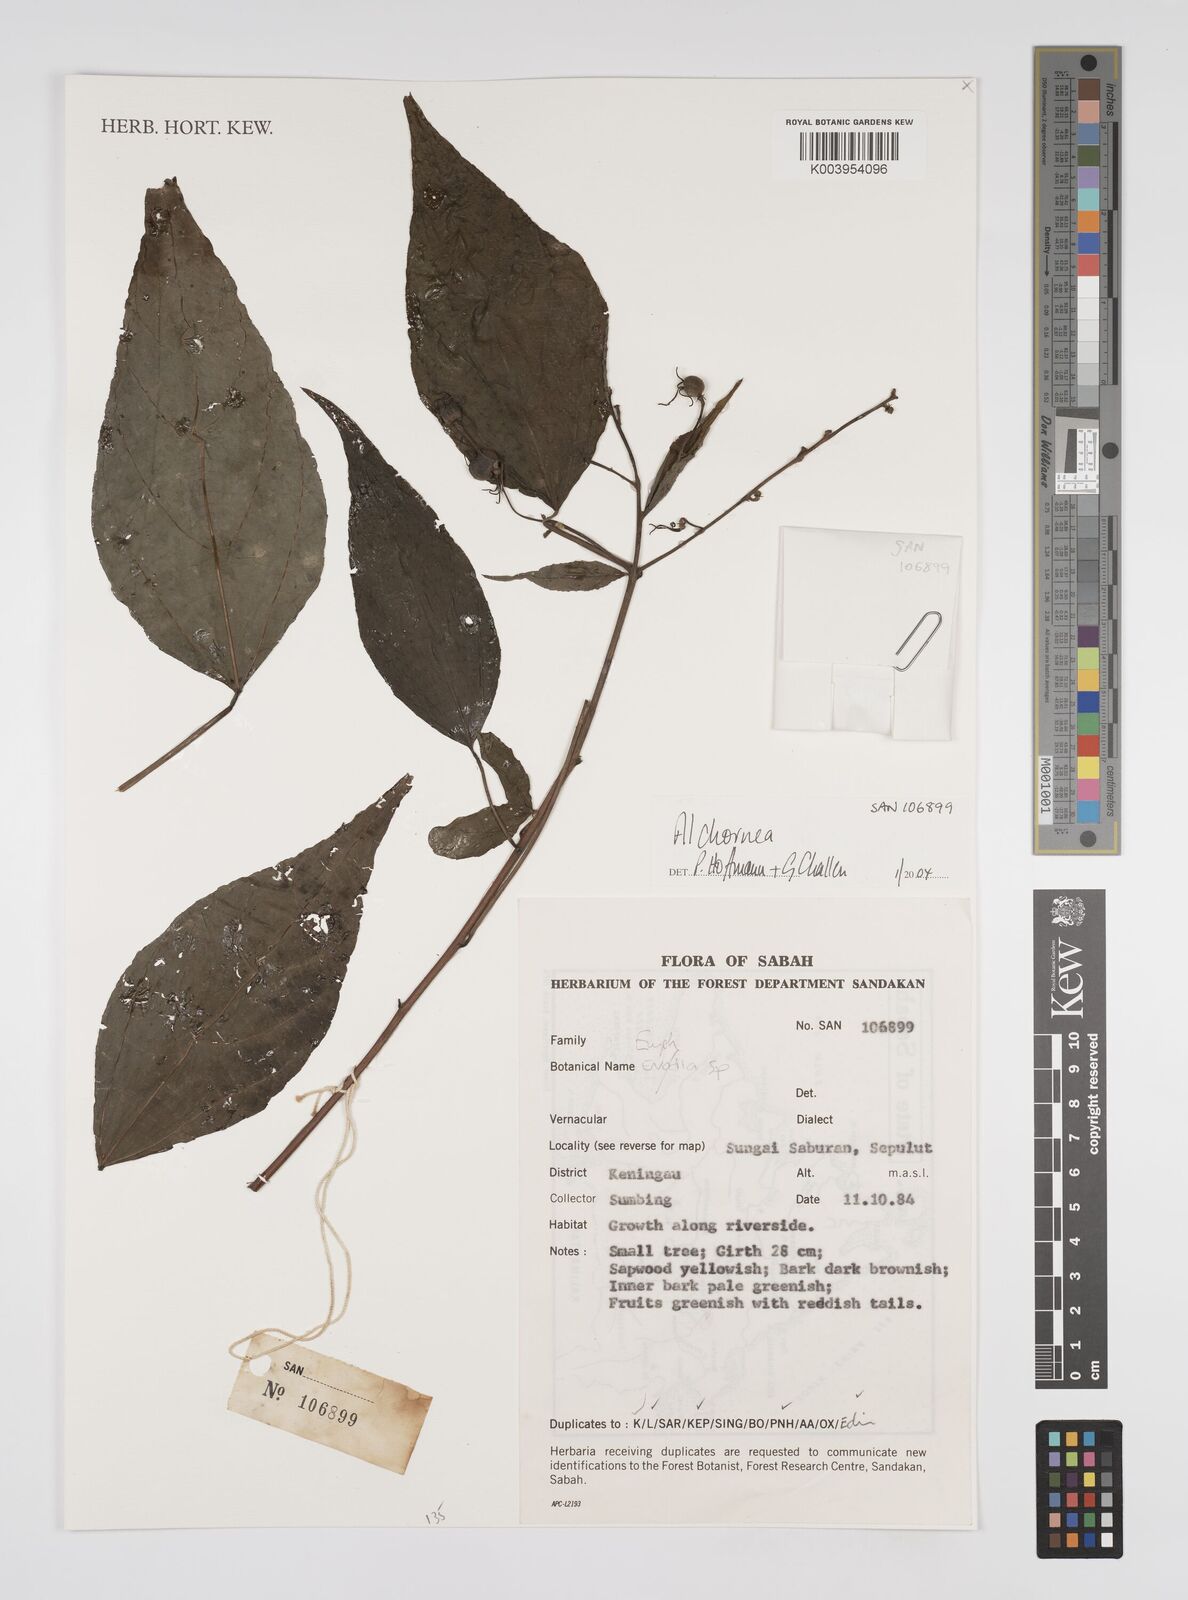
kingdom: Plantae
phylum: Tracheophyta
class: Magnoliopsida
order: Malpighiales
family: Euphorbiaceae
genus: Alchornea
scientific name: Alchornea
